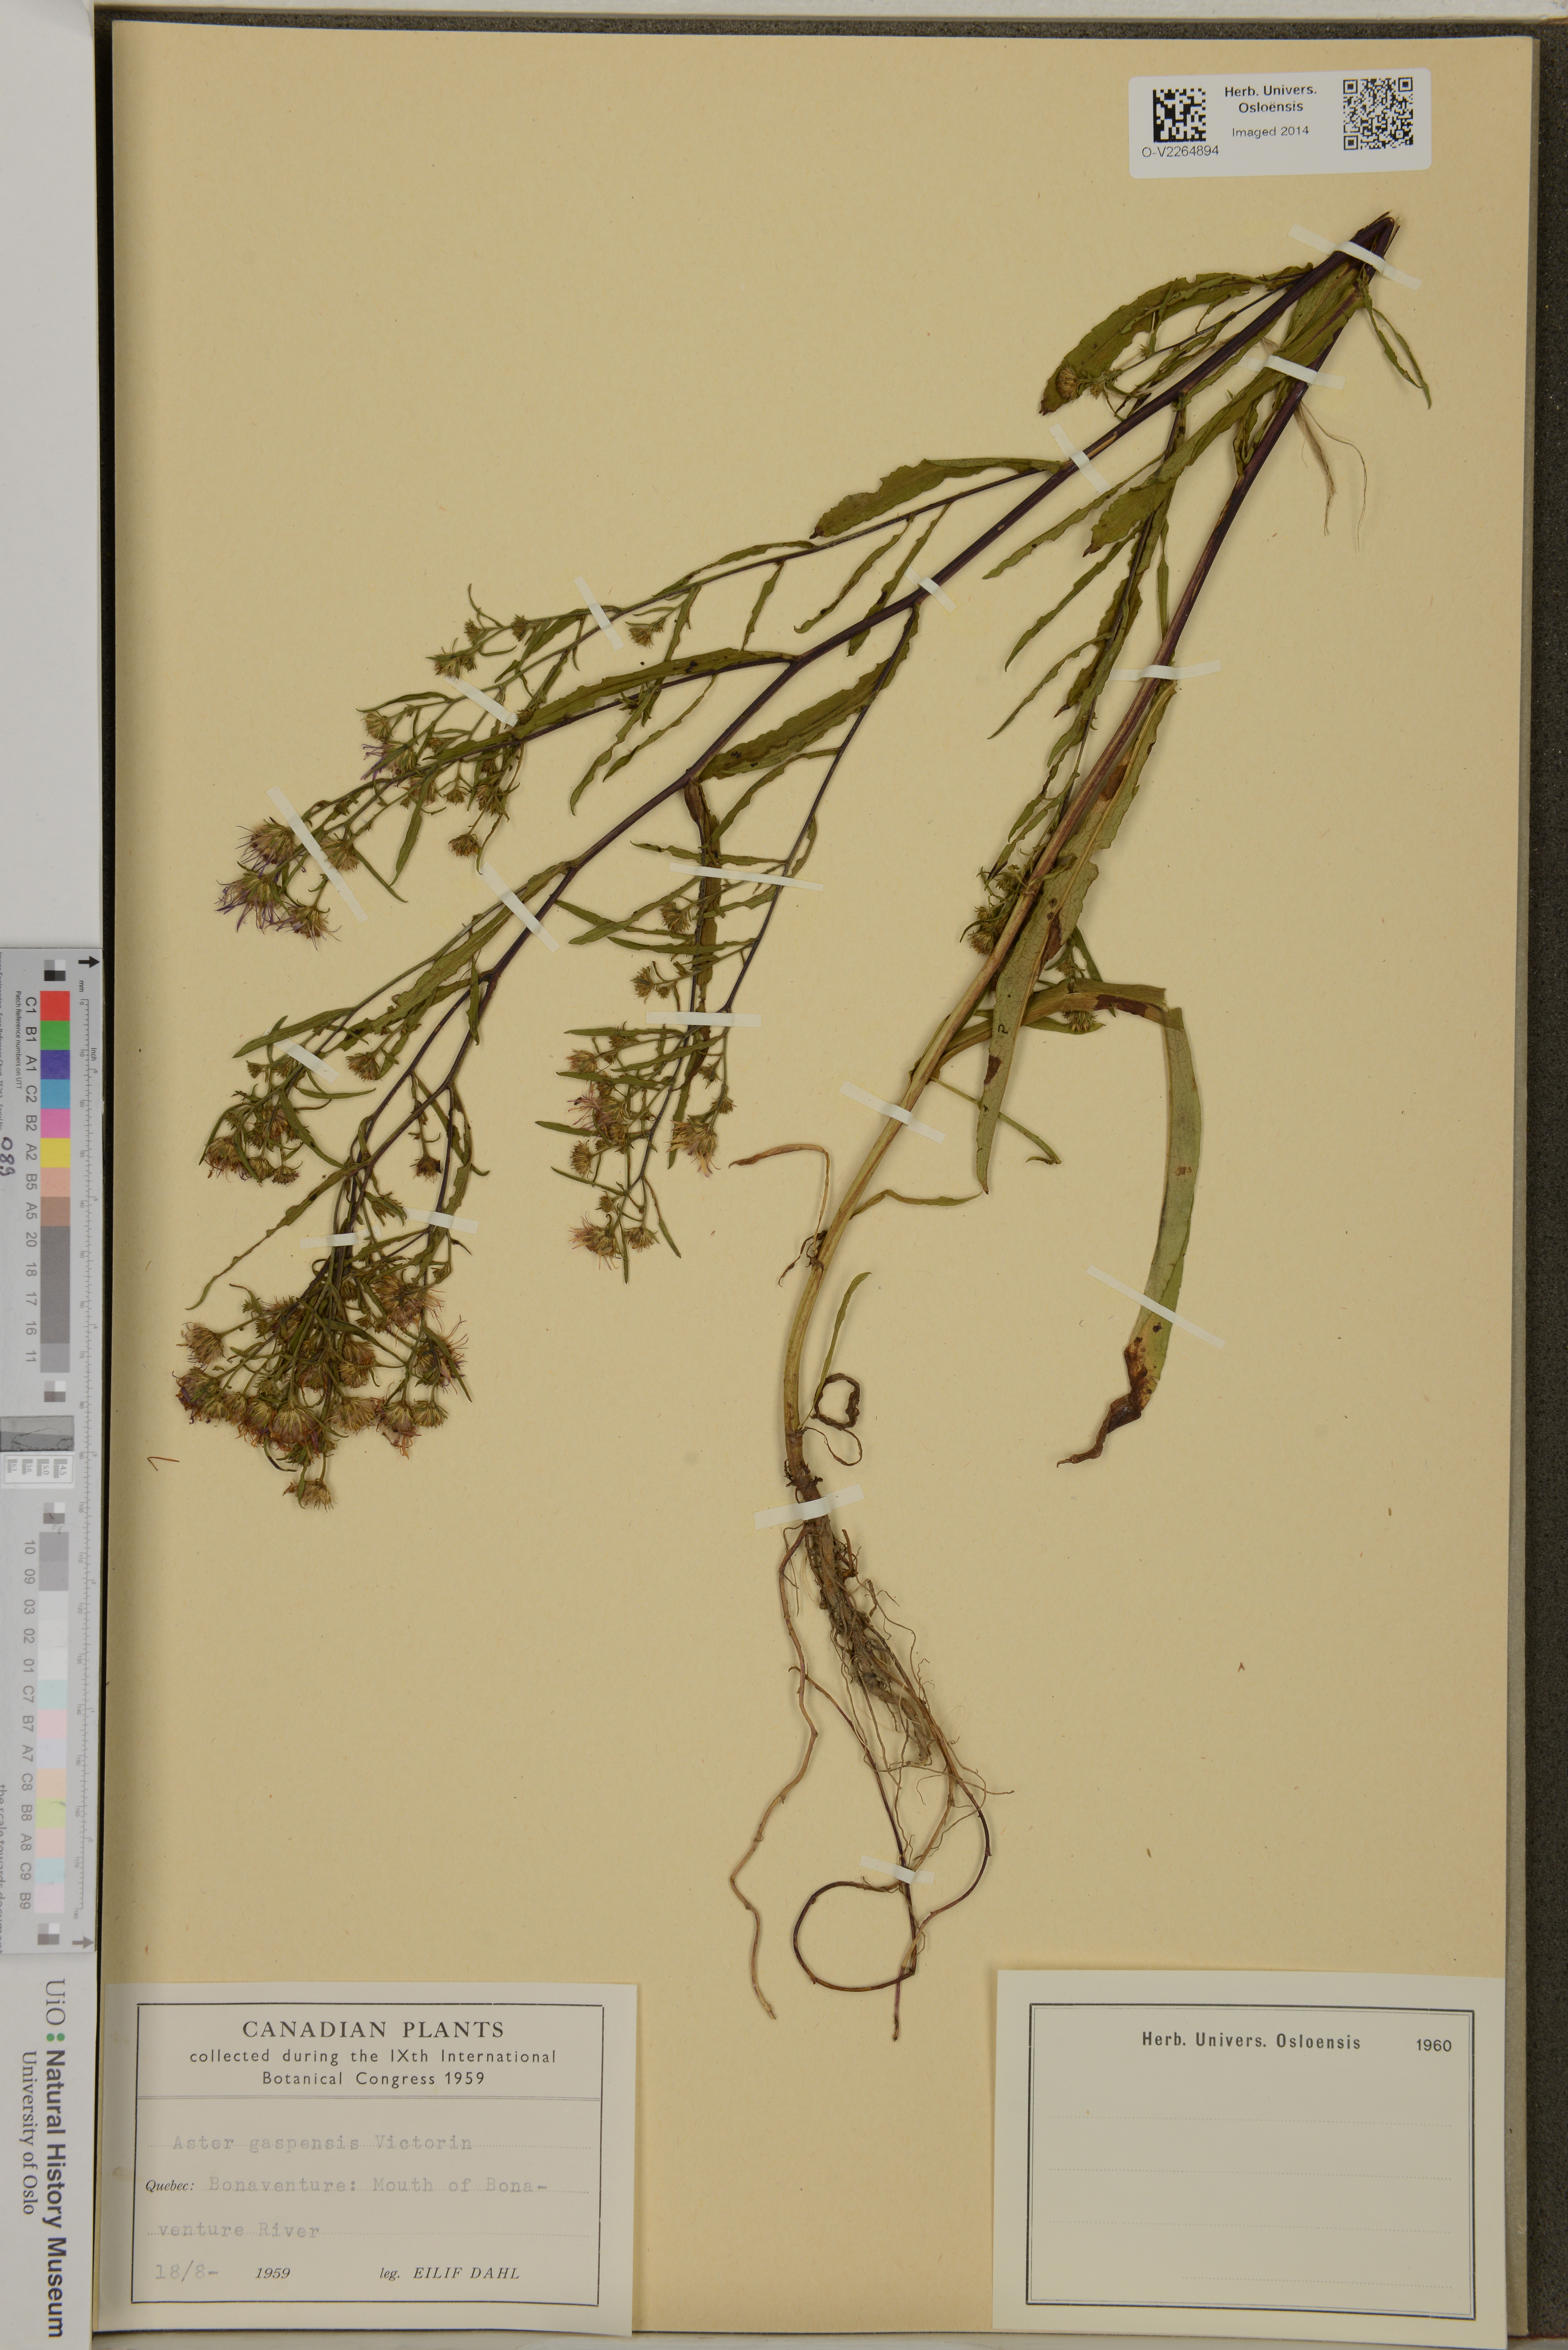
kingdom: Plantae
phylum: Tracheophyta
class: Magnoliopsida
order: Asterales
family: Asteraceae
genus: Symphyotrichum
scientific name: Symphyotrichum anticostense
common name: Anticosti island aster
